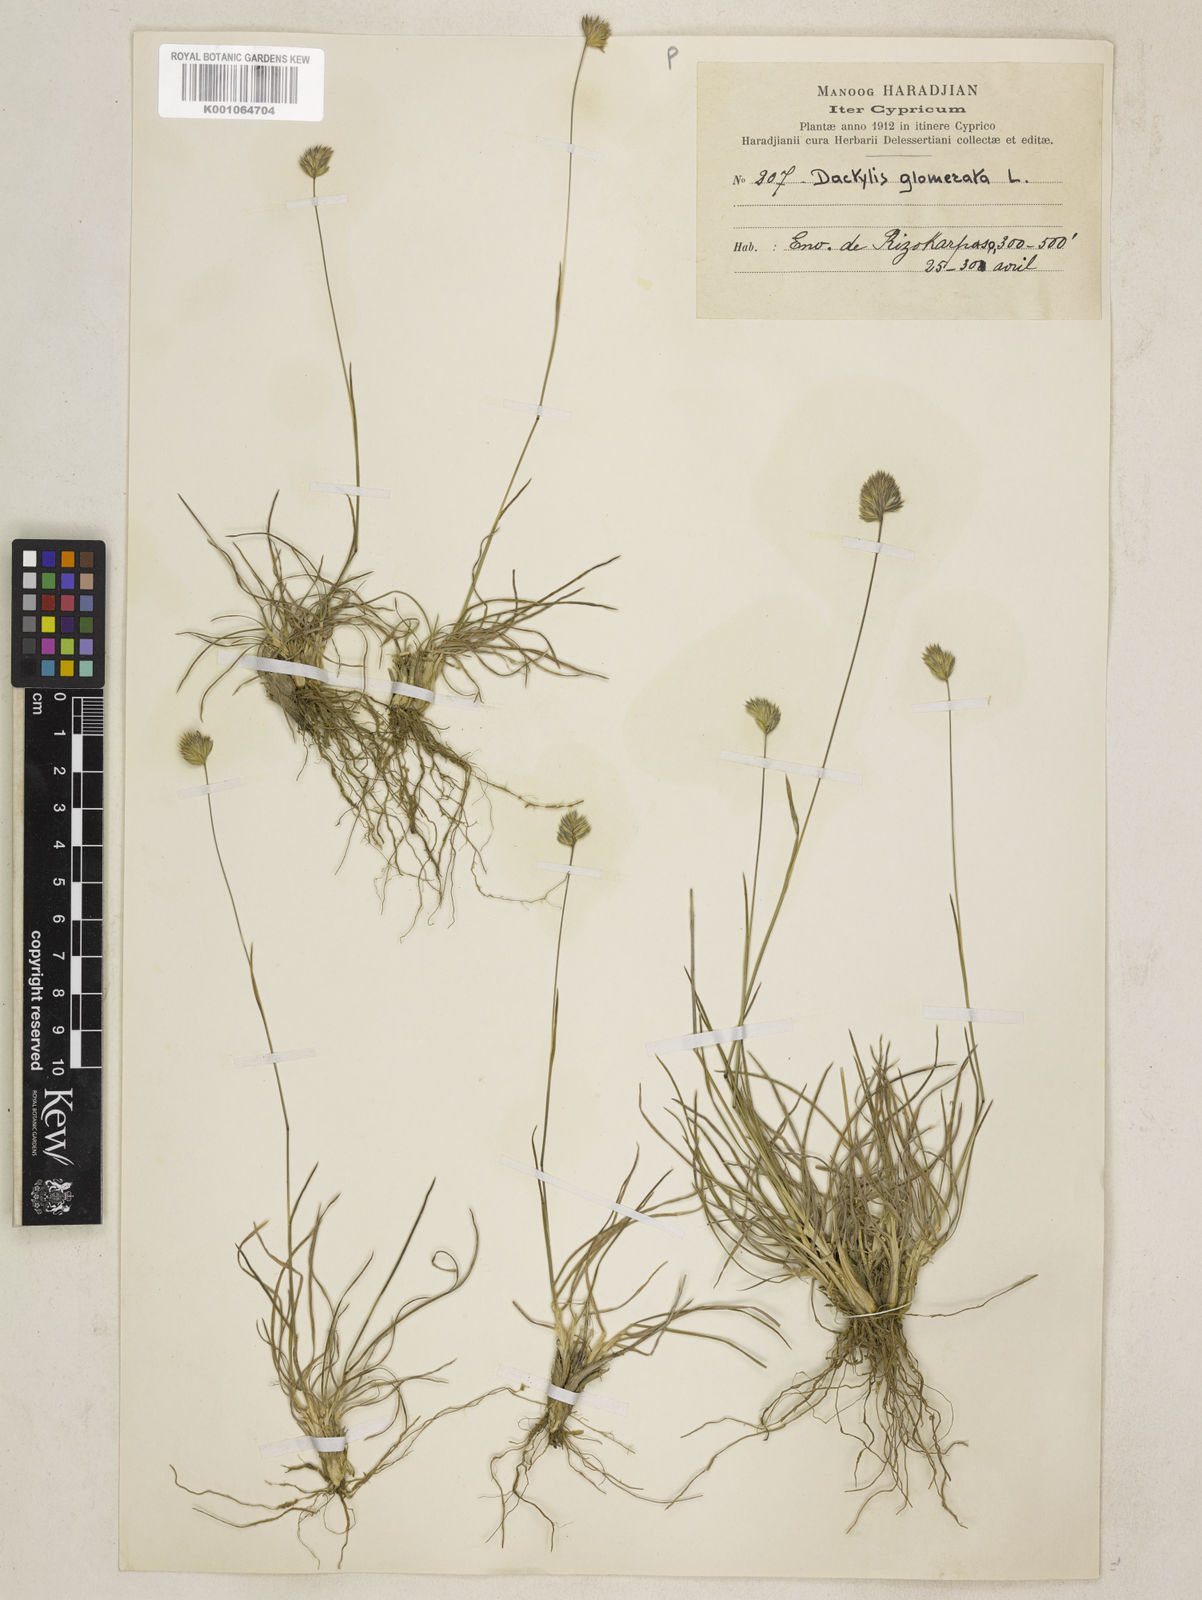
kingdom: Plantae
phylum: Tracheophyta
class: Liliopsida
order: Poales
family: Poaceae
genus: Dactylis
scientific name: Dactylis glomerata
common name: Orchardgrass
